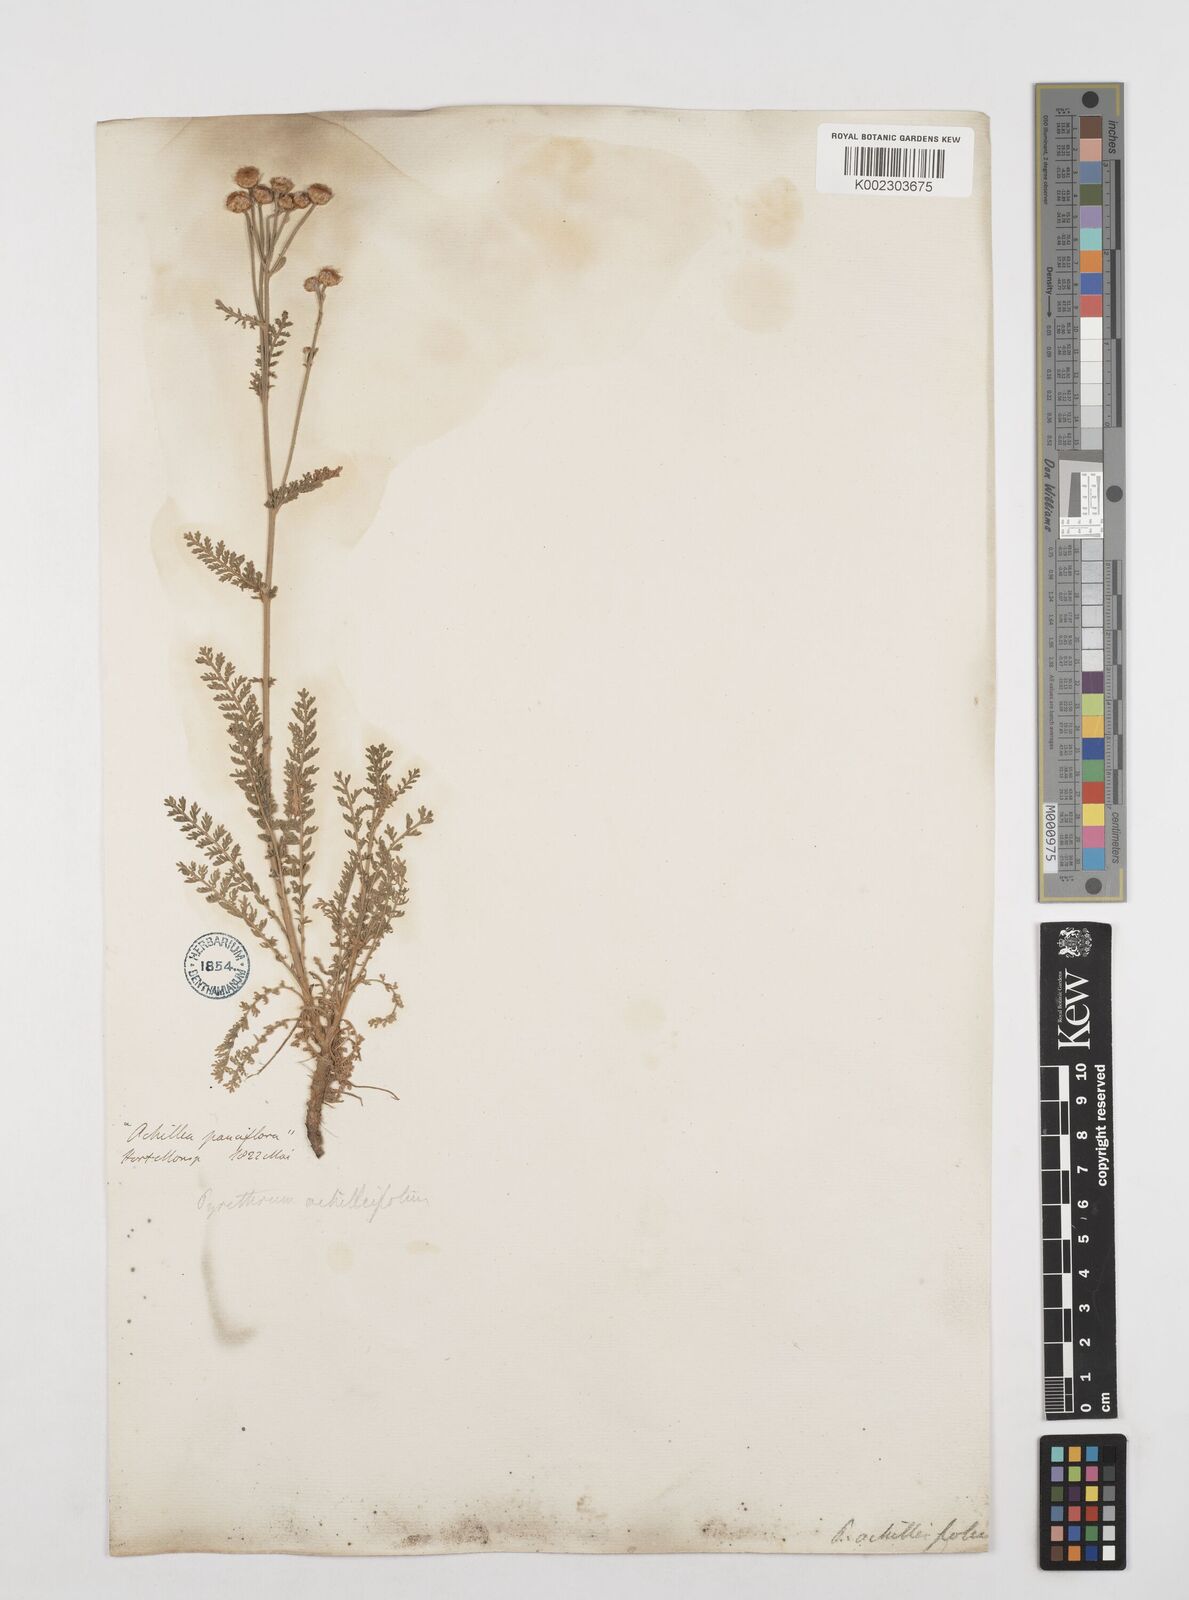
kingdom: Plantae
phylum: Tracheophyta
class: Magnoliopsida
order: Asterales
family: Asteraceae
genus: Tanacetum
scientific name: Tanacetum abrotanifolium
